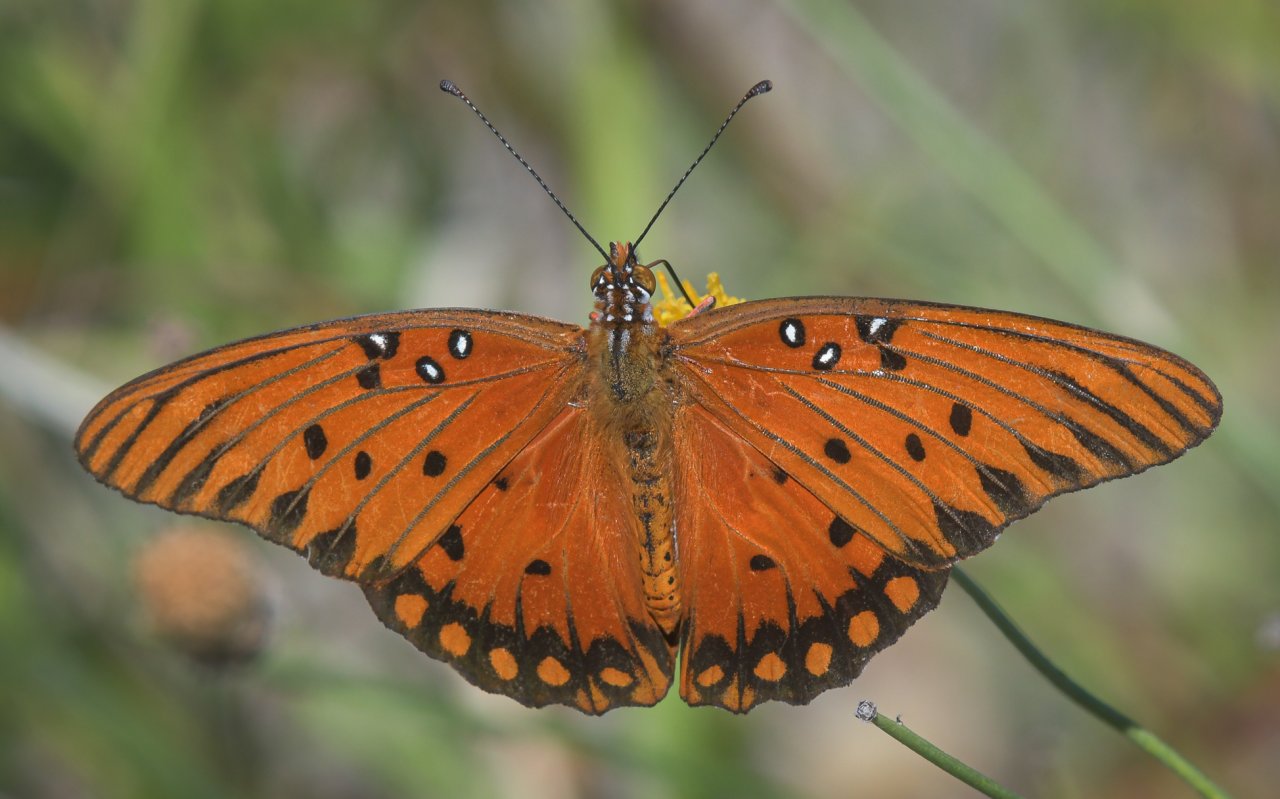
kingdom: Animalia
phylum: Arthropoda
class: Insecta
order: Lepidoptera
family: Nymphalidae
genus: Dione
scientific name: Dione vanillae
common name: Gulf Fritillary
